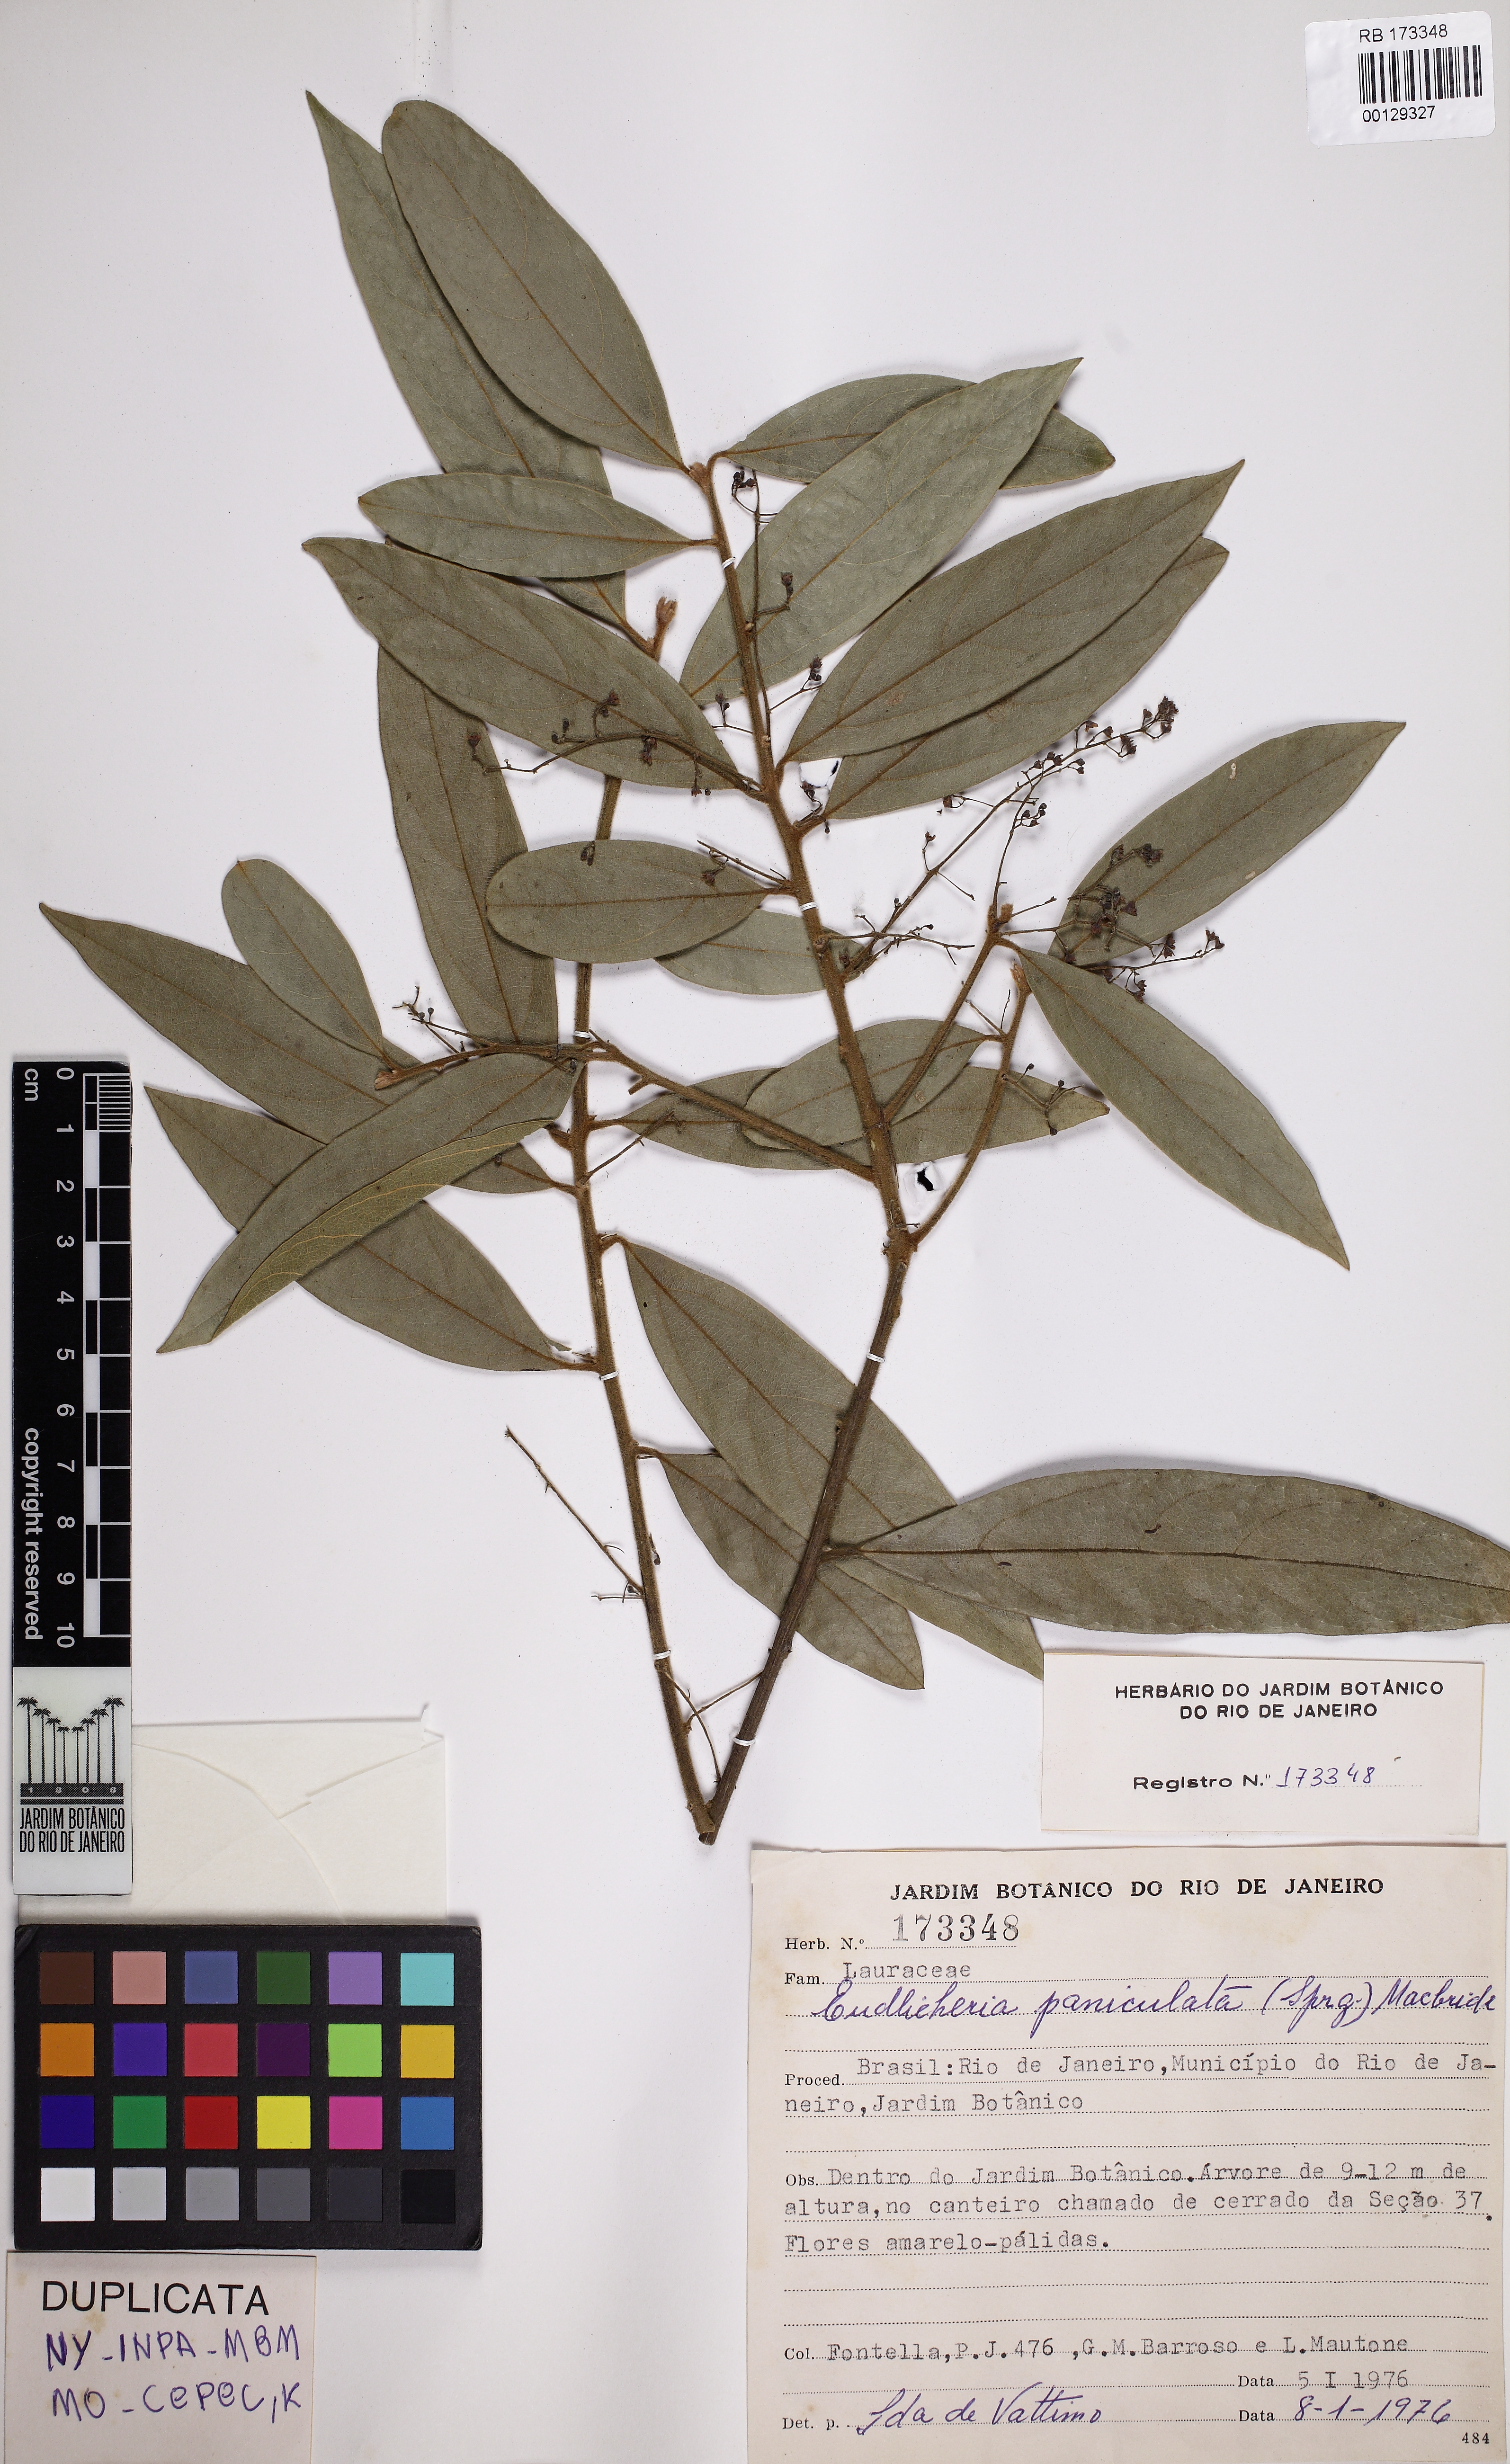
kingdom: Plantae
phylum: Tracheophyta
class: Magnoliopsida
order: Laurales
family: Lauraceae
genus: Endlicheria
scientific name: Endlicheria paniculata
